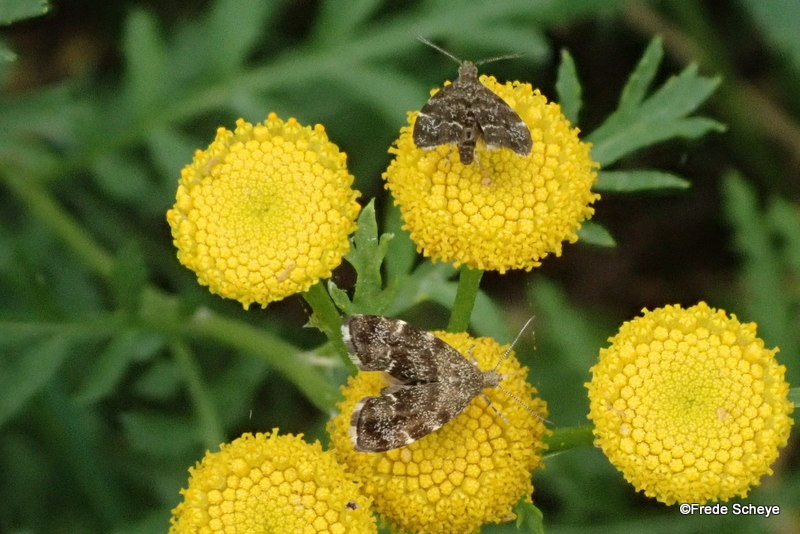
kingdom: Animalia
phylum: Arthropoda
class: Insecta
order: Lepidoptera
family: Choreutidae
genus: Anthophila
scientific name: Anthophila fabriciana
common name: Bredvinget nældevikler
